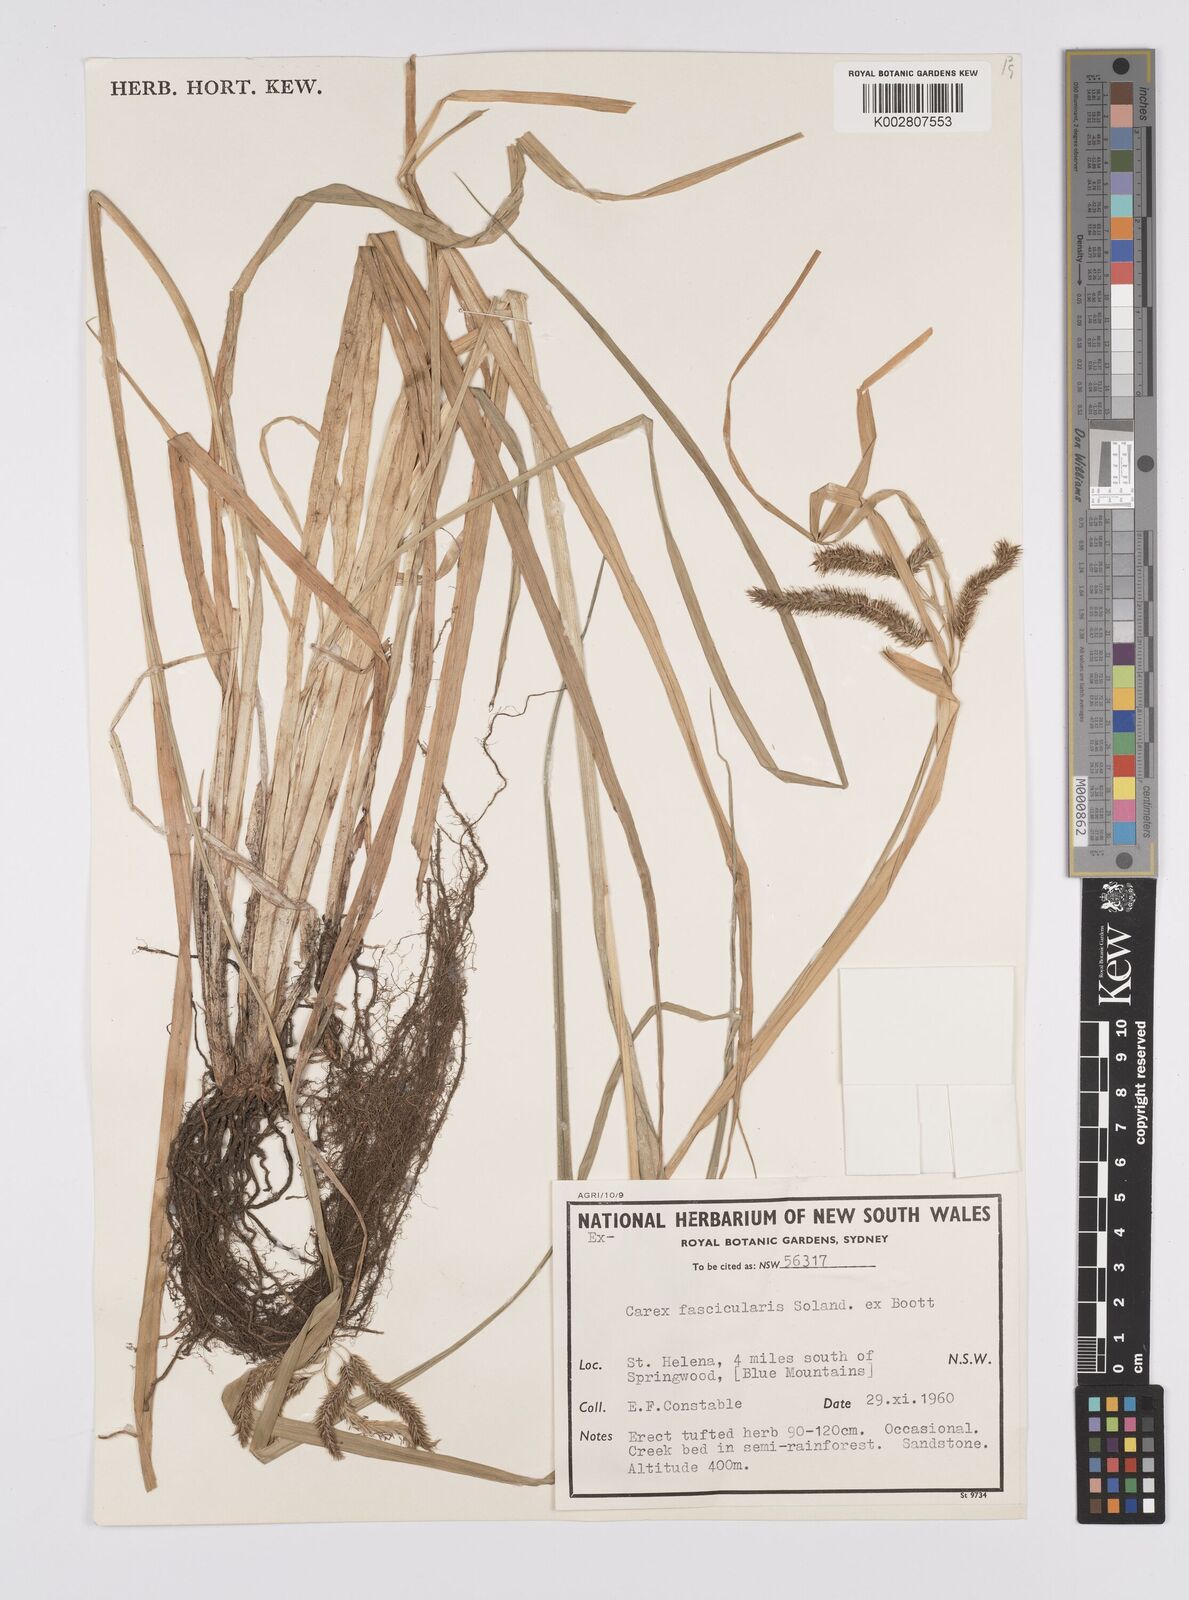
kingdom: Plantae
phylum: Tracheophyta
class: Liliopsida
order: Poales
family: Cyperaceae
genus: Carex
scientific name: Carex fascicularis
